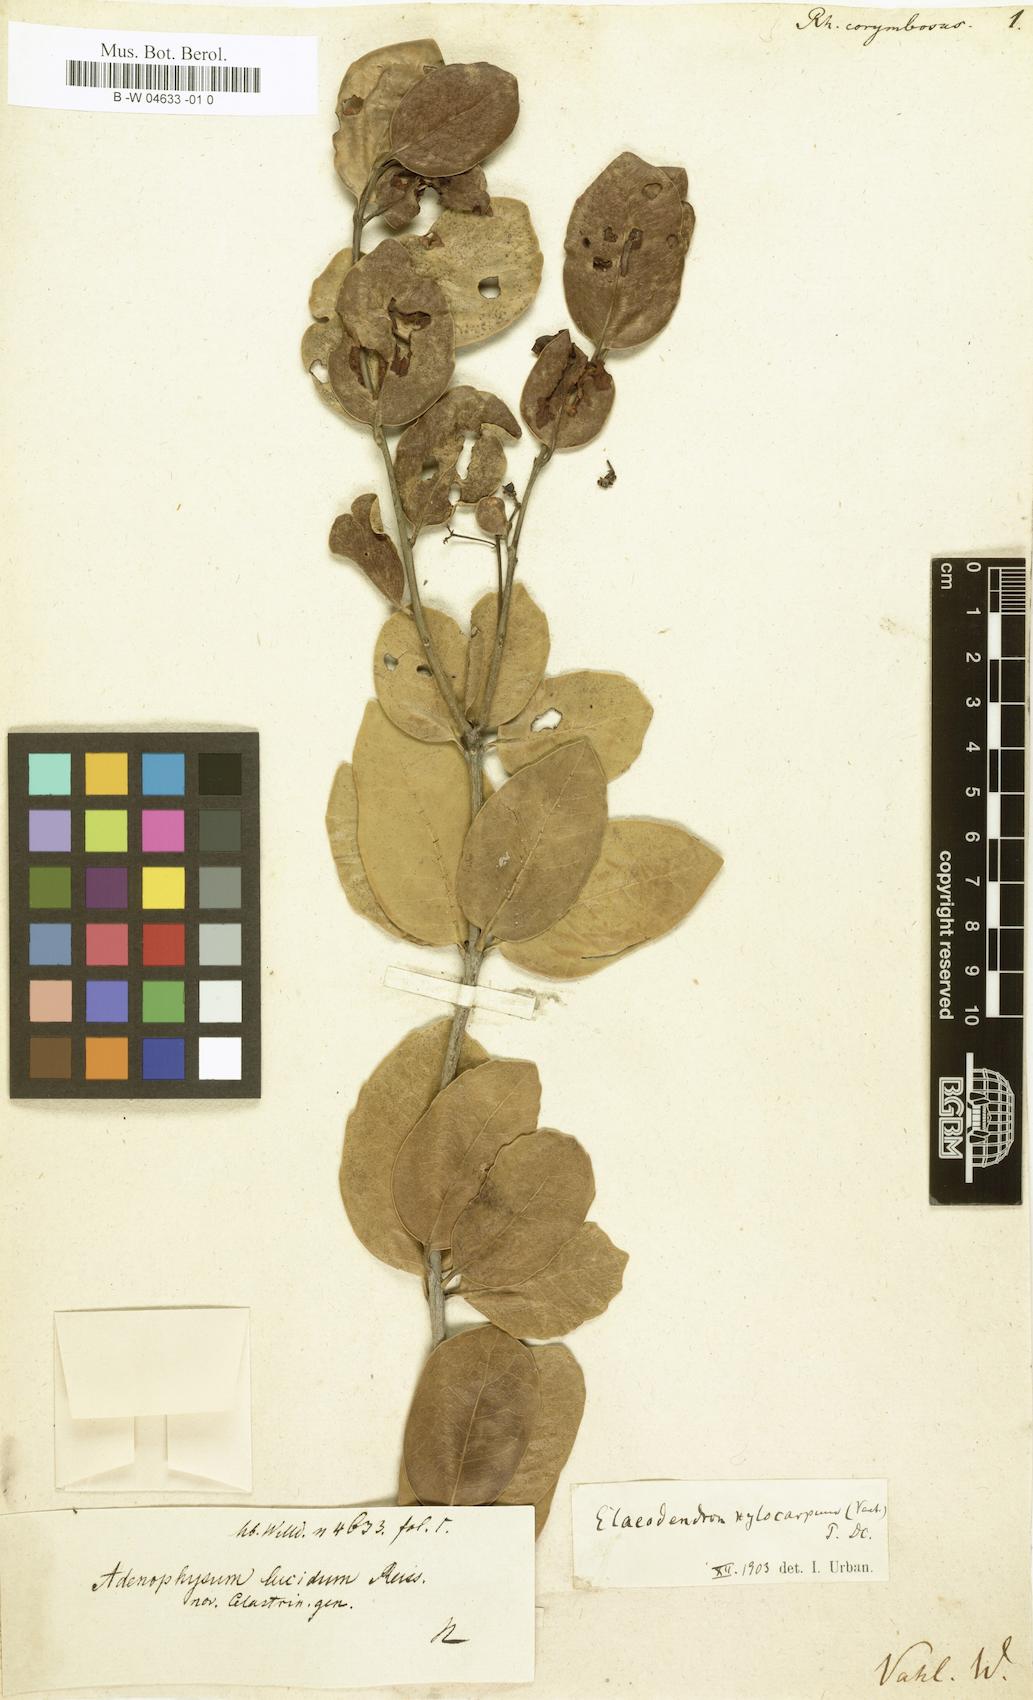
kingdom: Plantae
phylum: Tracheophyta
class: Magnoliopsida
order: Celastrales
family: Celastraceae
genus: Elaeodendron
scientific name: Elaeodendron xylocarpum
